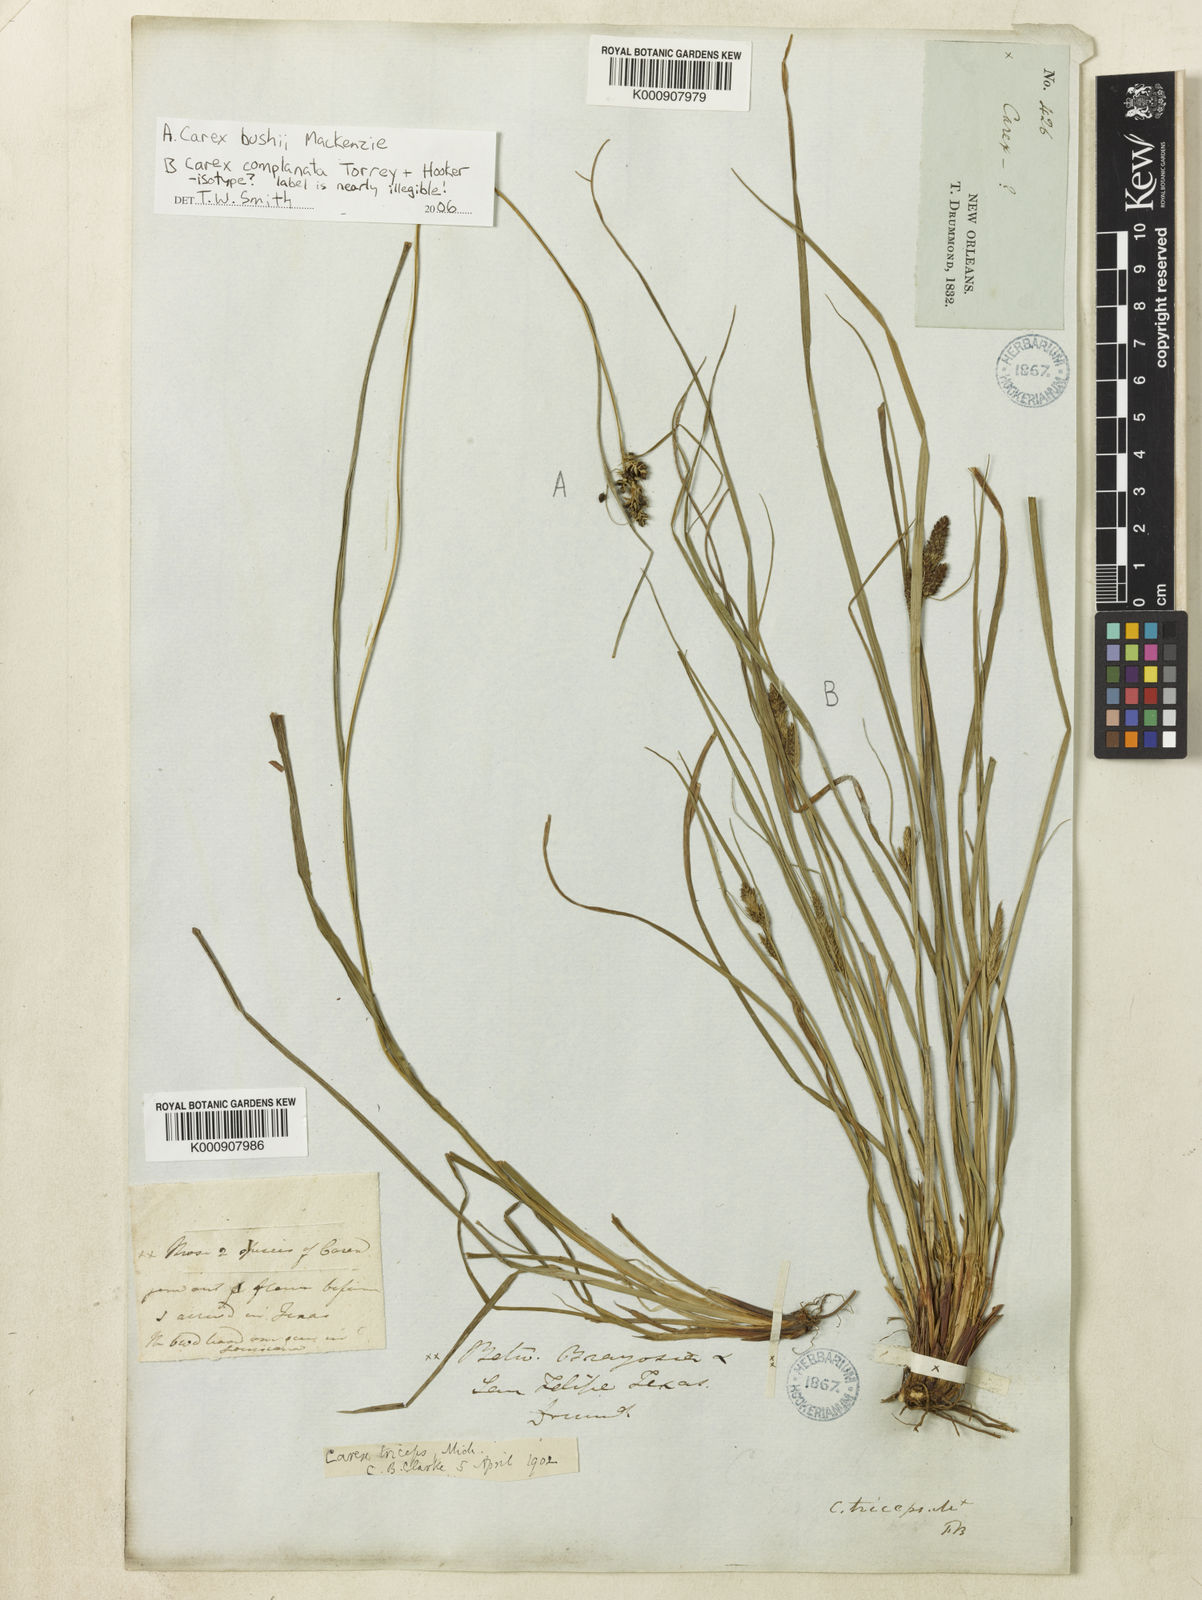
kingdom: Plantae
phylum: Tracheophyta
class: Liliopsida
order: Poales
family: Cyperaceae
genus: Carex
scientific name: Carex complanata
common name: Hirsute sedge
